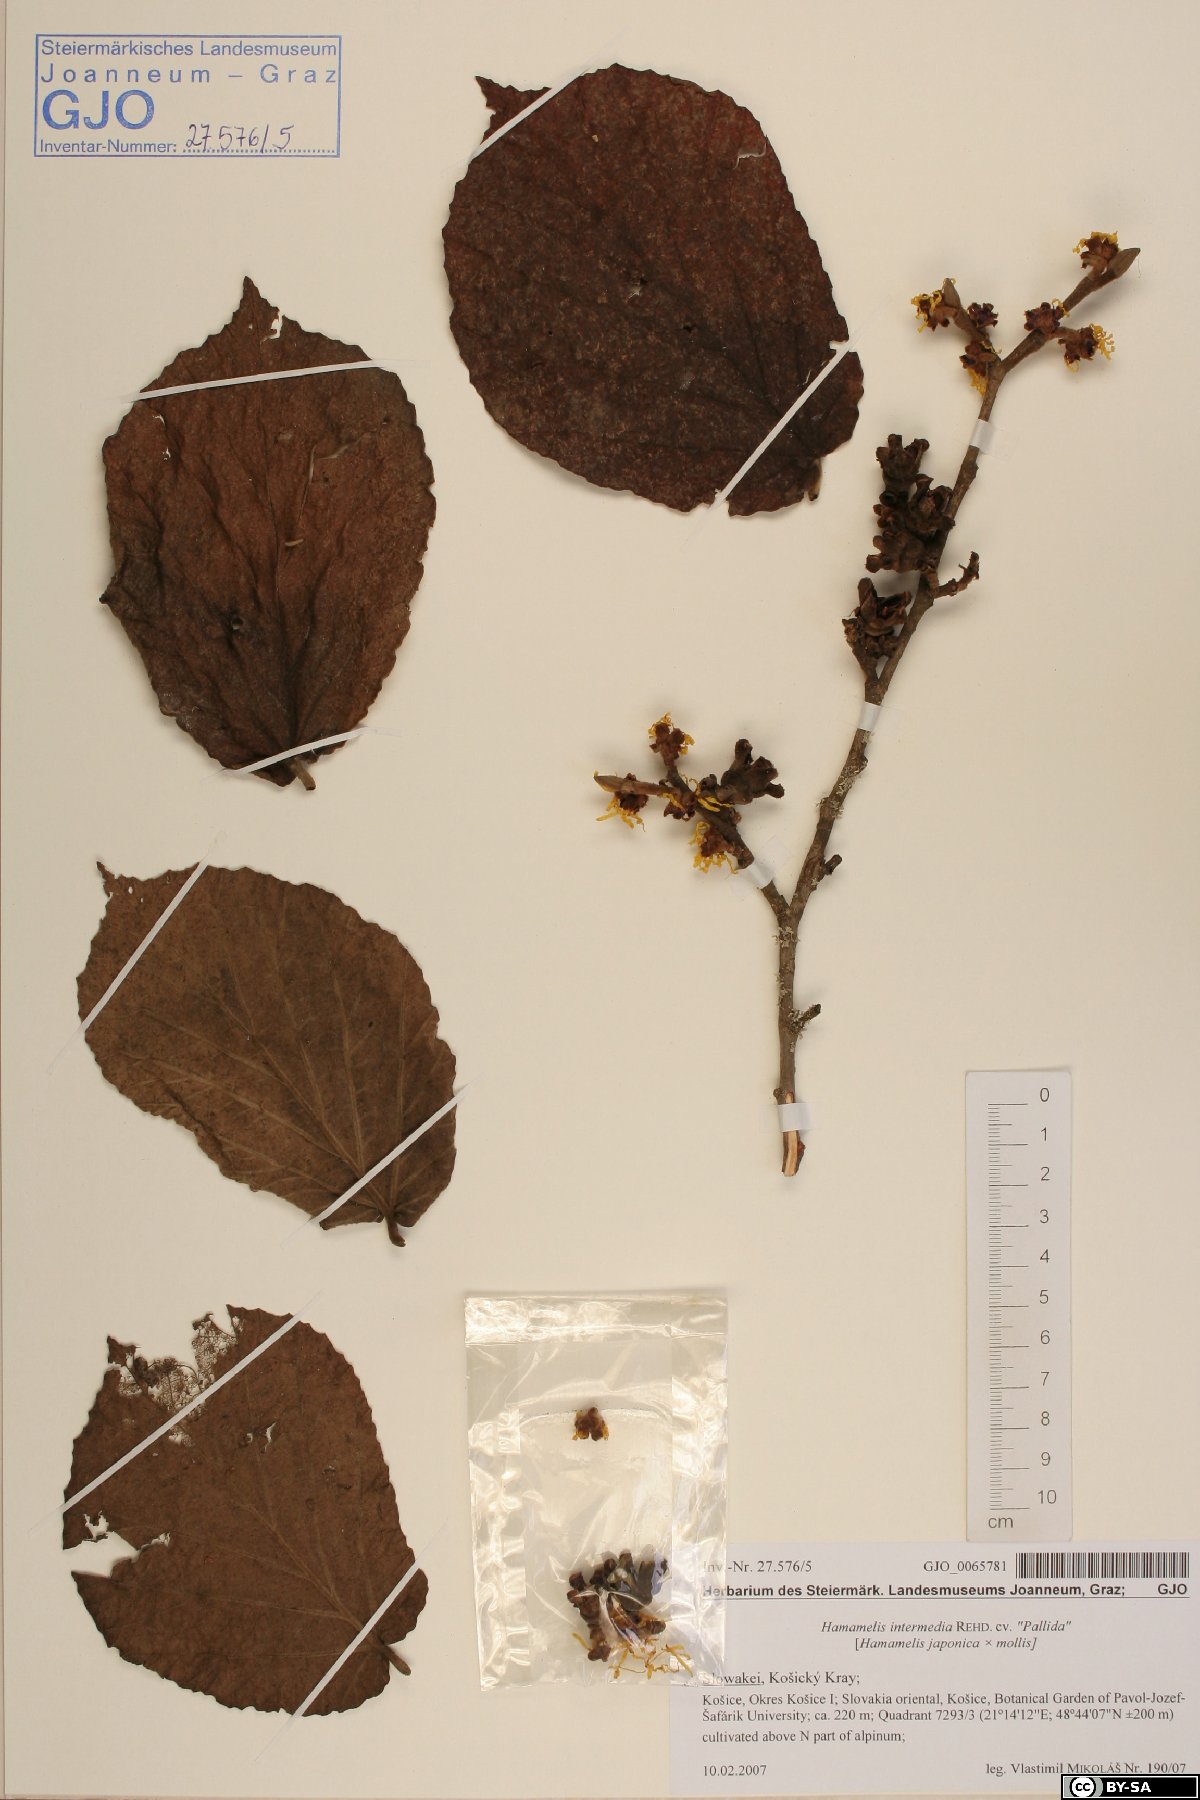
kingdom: Plantae
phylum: Tracheophyta
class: Magnoliopsida
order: Saxifragales
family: Hamamelidaceae
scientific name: Hamamelidaceae
